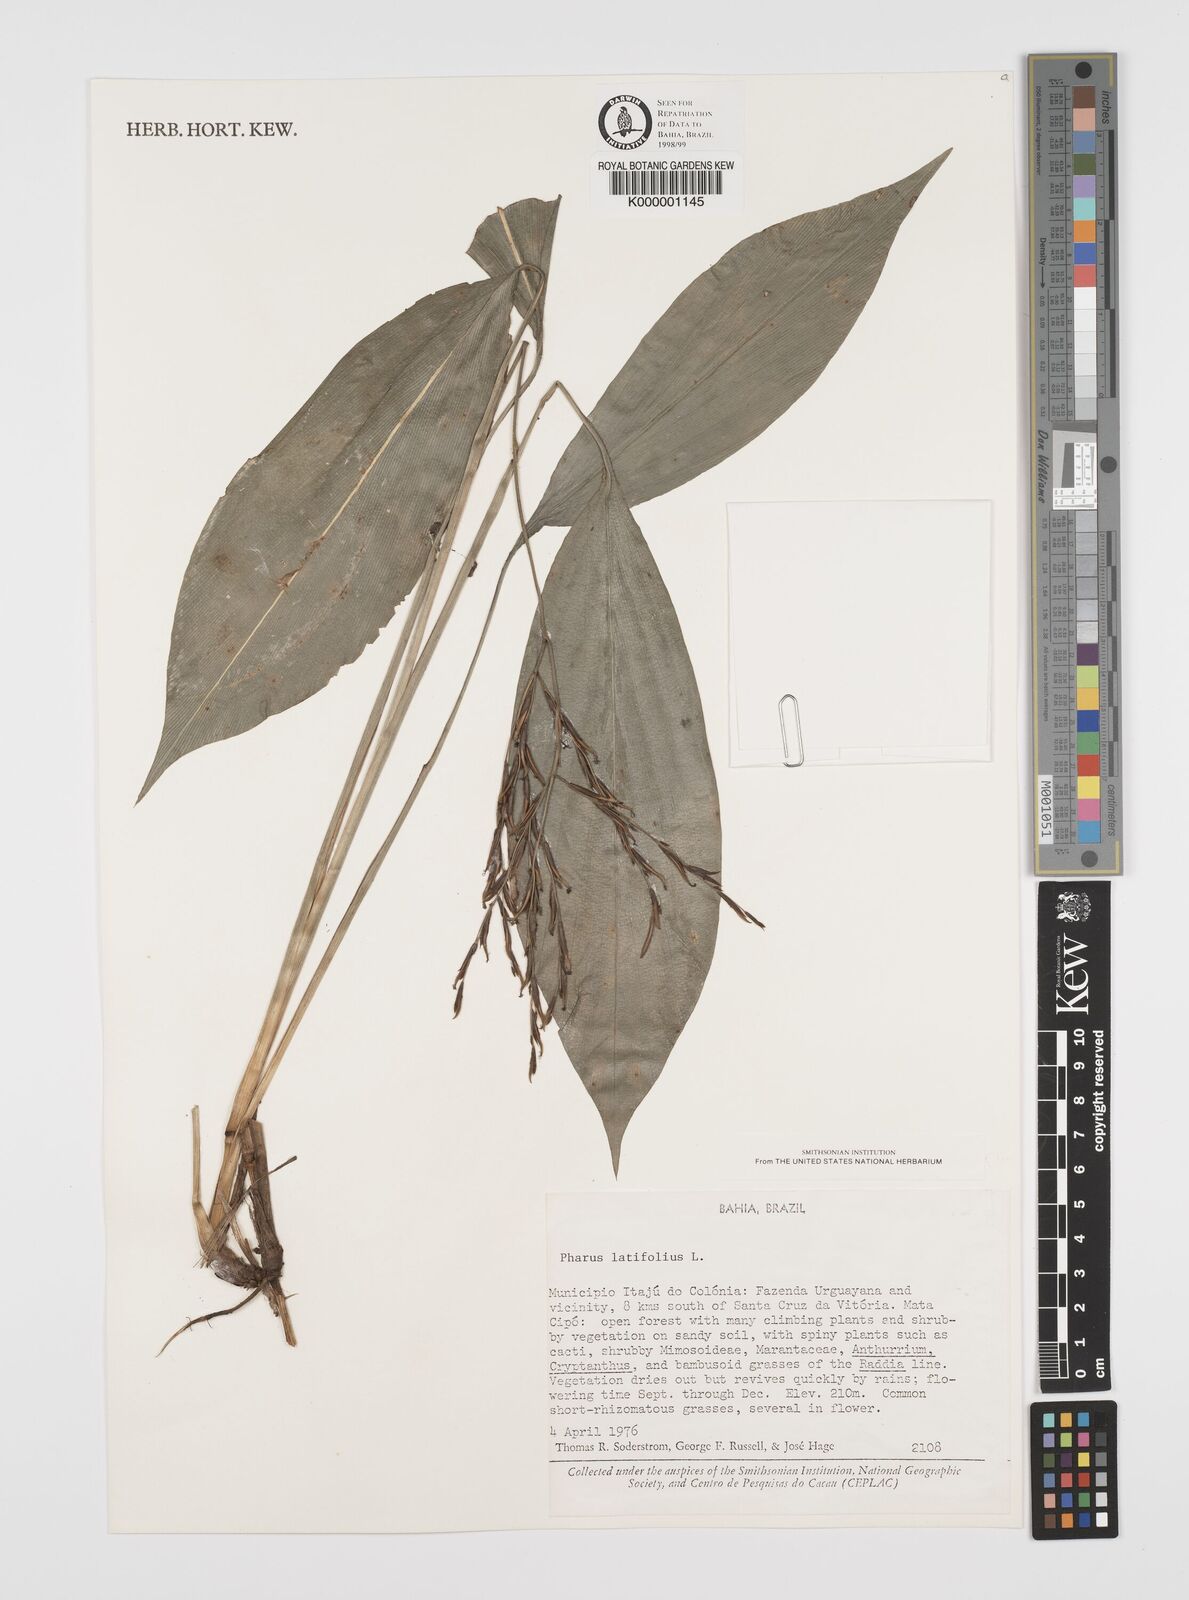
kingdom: Plantae
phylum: Tracheophyta
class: Liliopsida
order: Poales
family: Poaceae
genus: Pharus
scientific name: Pharus latifolius
